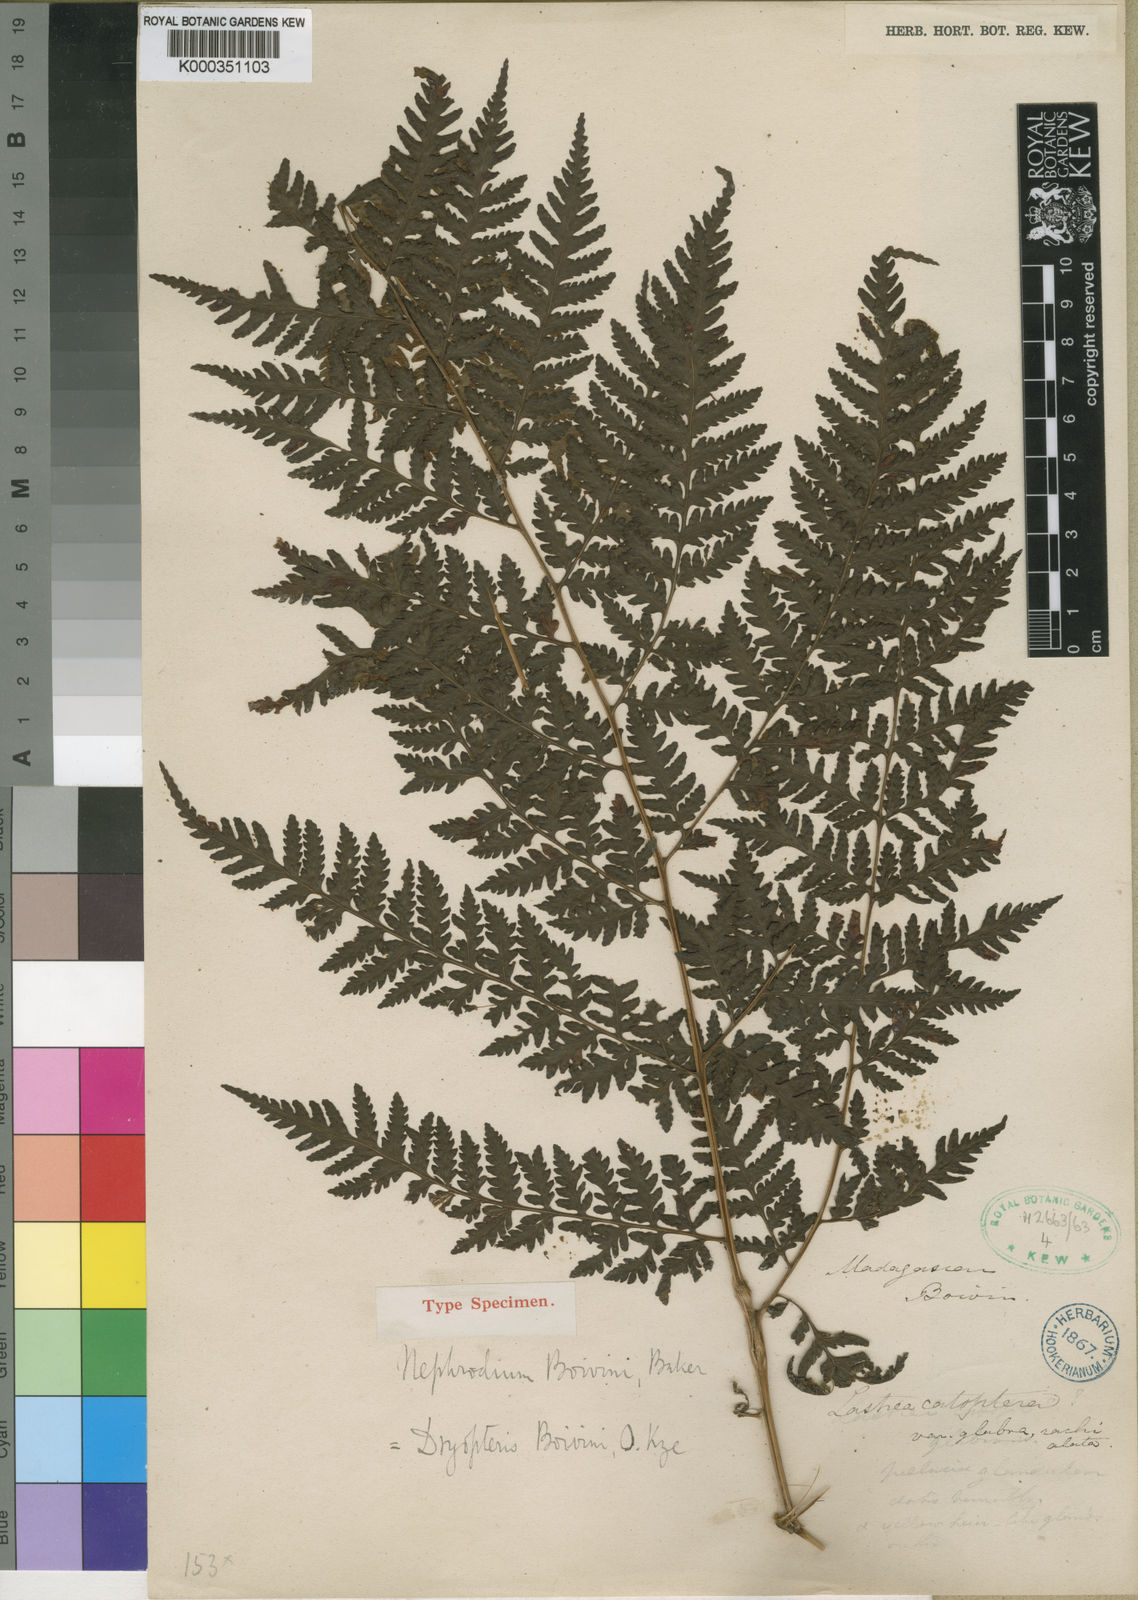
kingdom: Plantae
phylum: Tracheophyta
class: Polypodiopsida
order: Polypodiales
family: Dryopteridaceae
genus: Parapolystichum
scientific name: Parapolystichum boivinii
